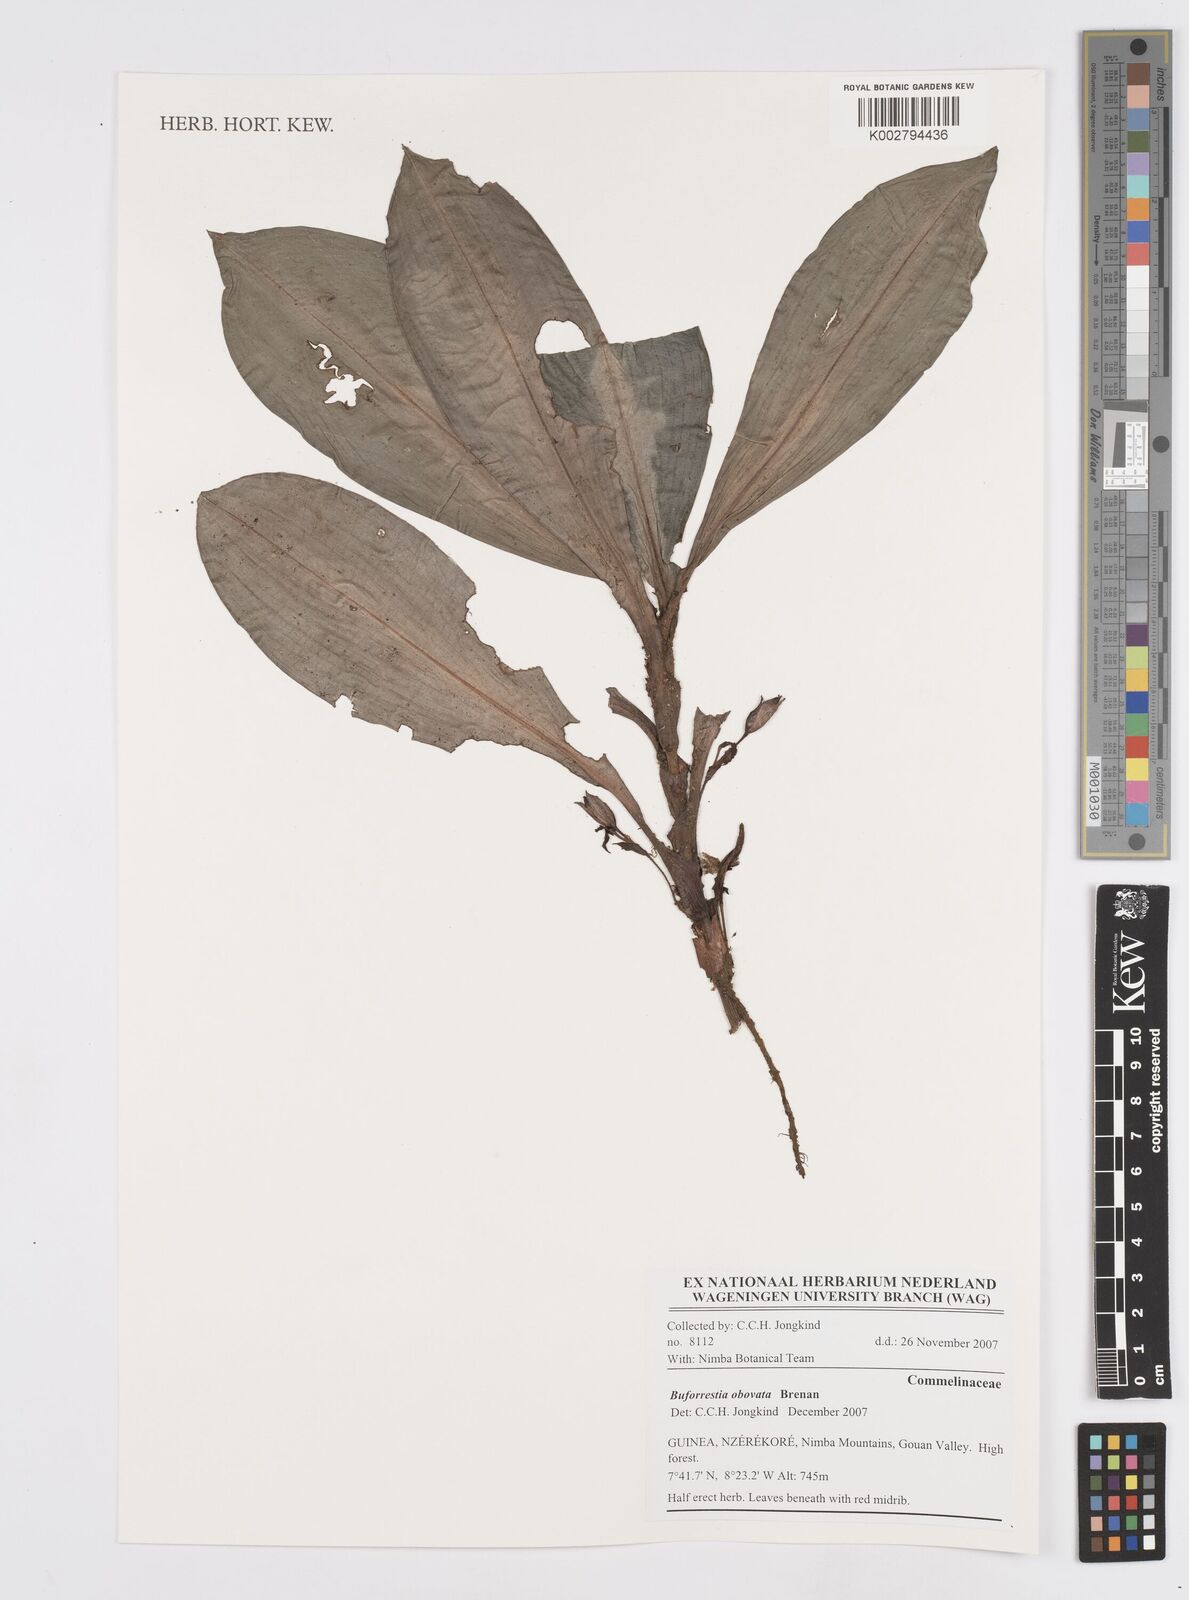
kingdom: Plantae
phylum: Tracheophyta
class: Liliopsida
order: Commelinales
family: Commelinaceae
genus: Buforrestia
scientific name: Buforrestia obovata
